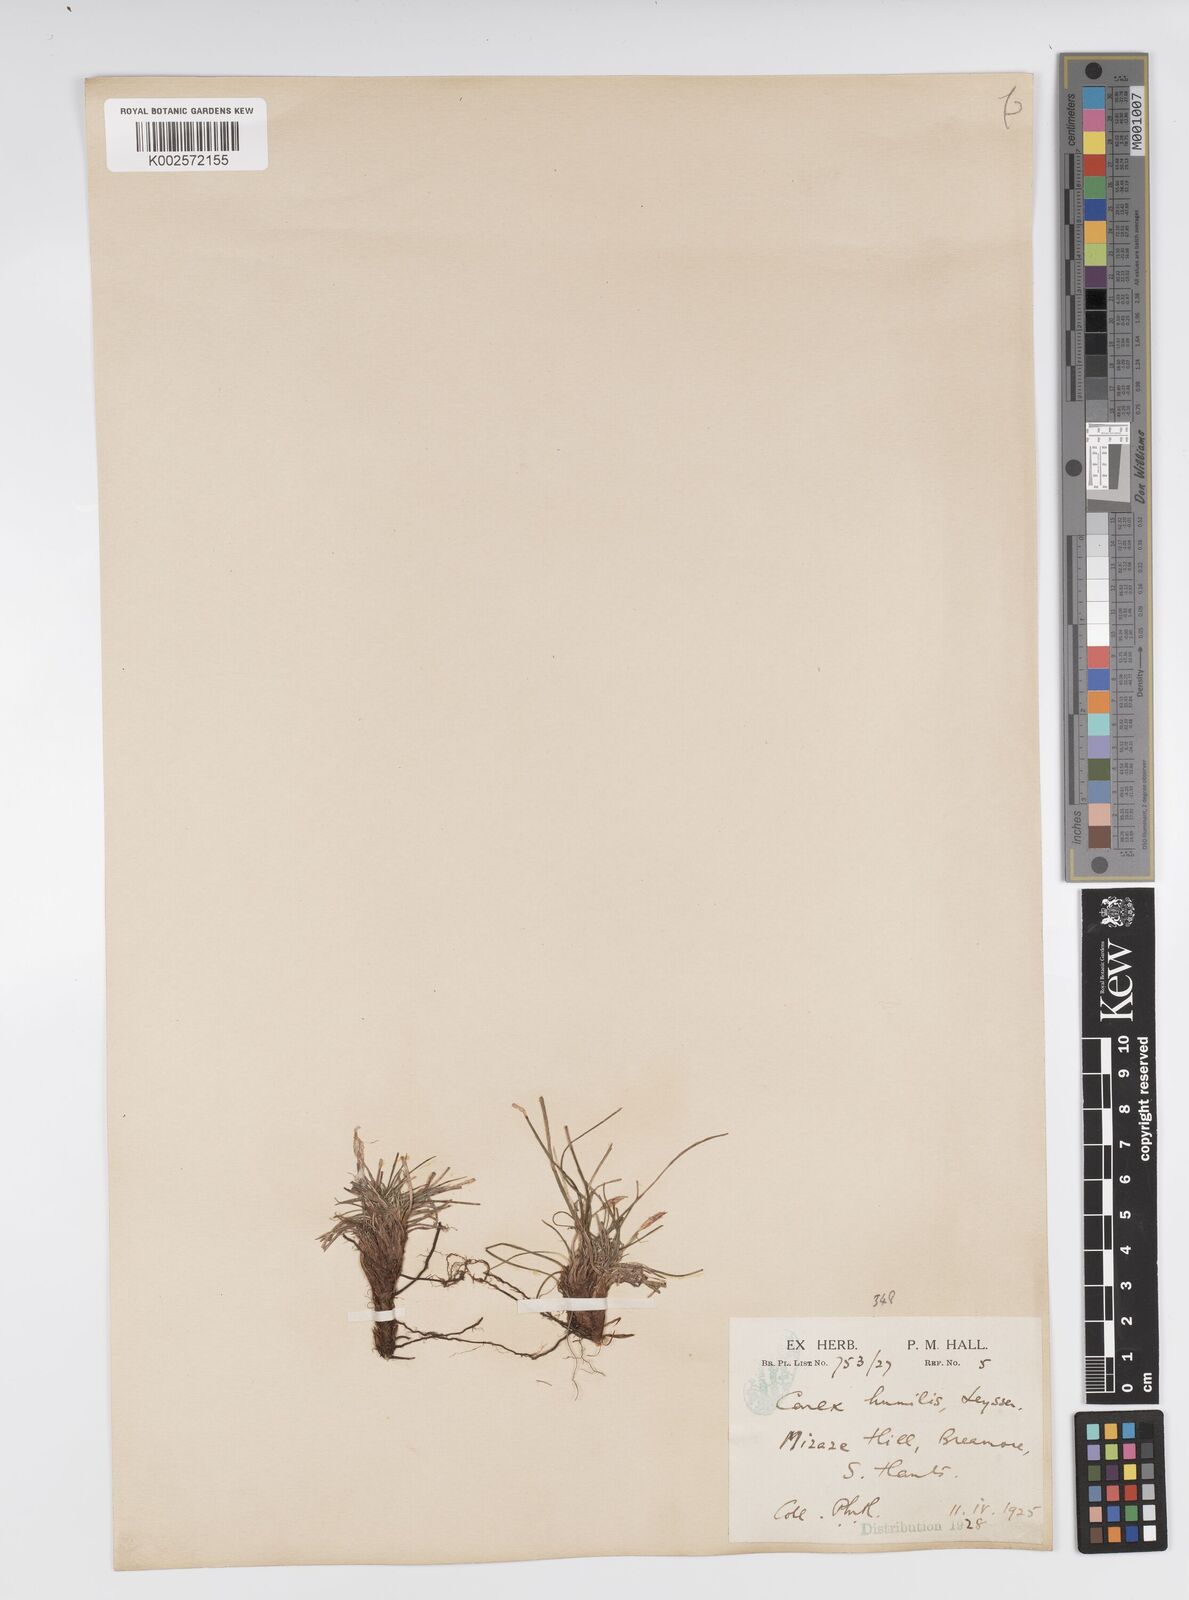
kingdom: Plantae
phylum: Tracheophyta
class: Liliopsida
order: Poales
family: Cyperaceae
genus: Carex
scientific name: Carex humilis
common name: Dwarf sedge
